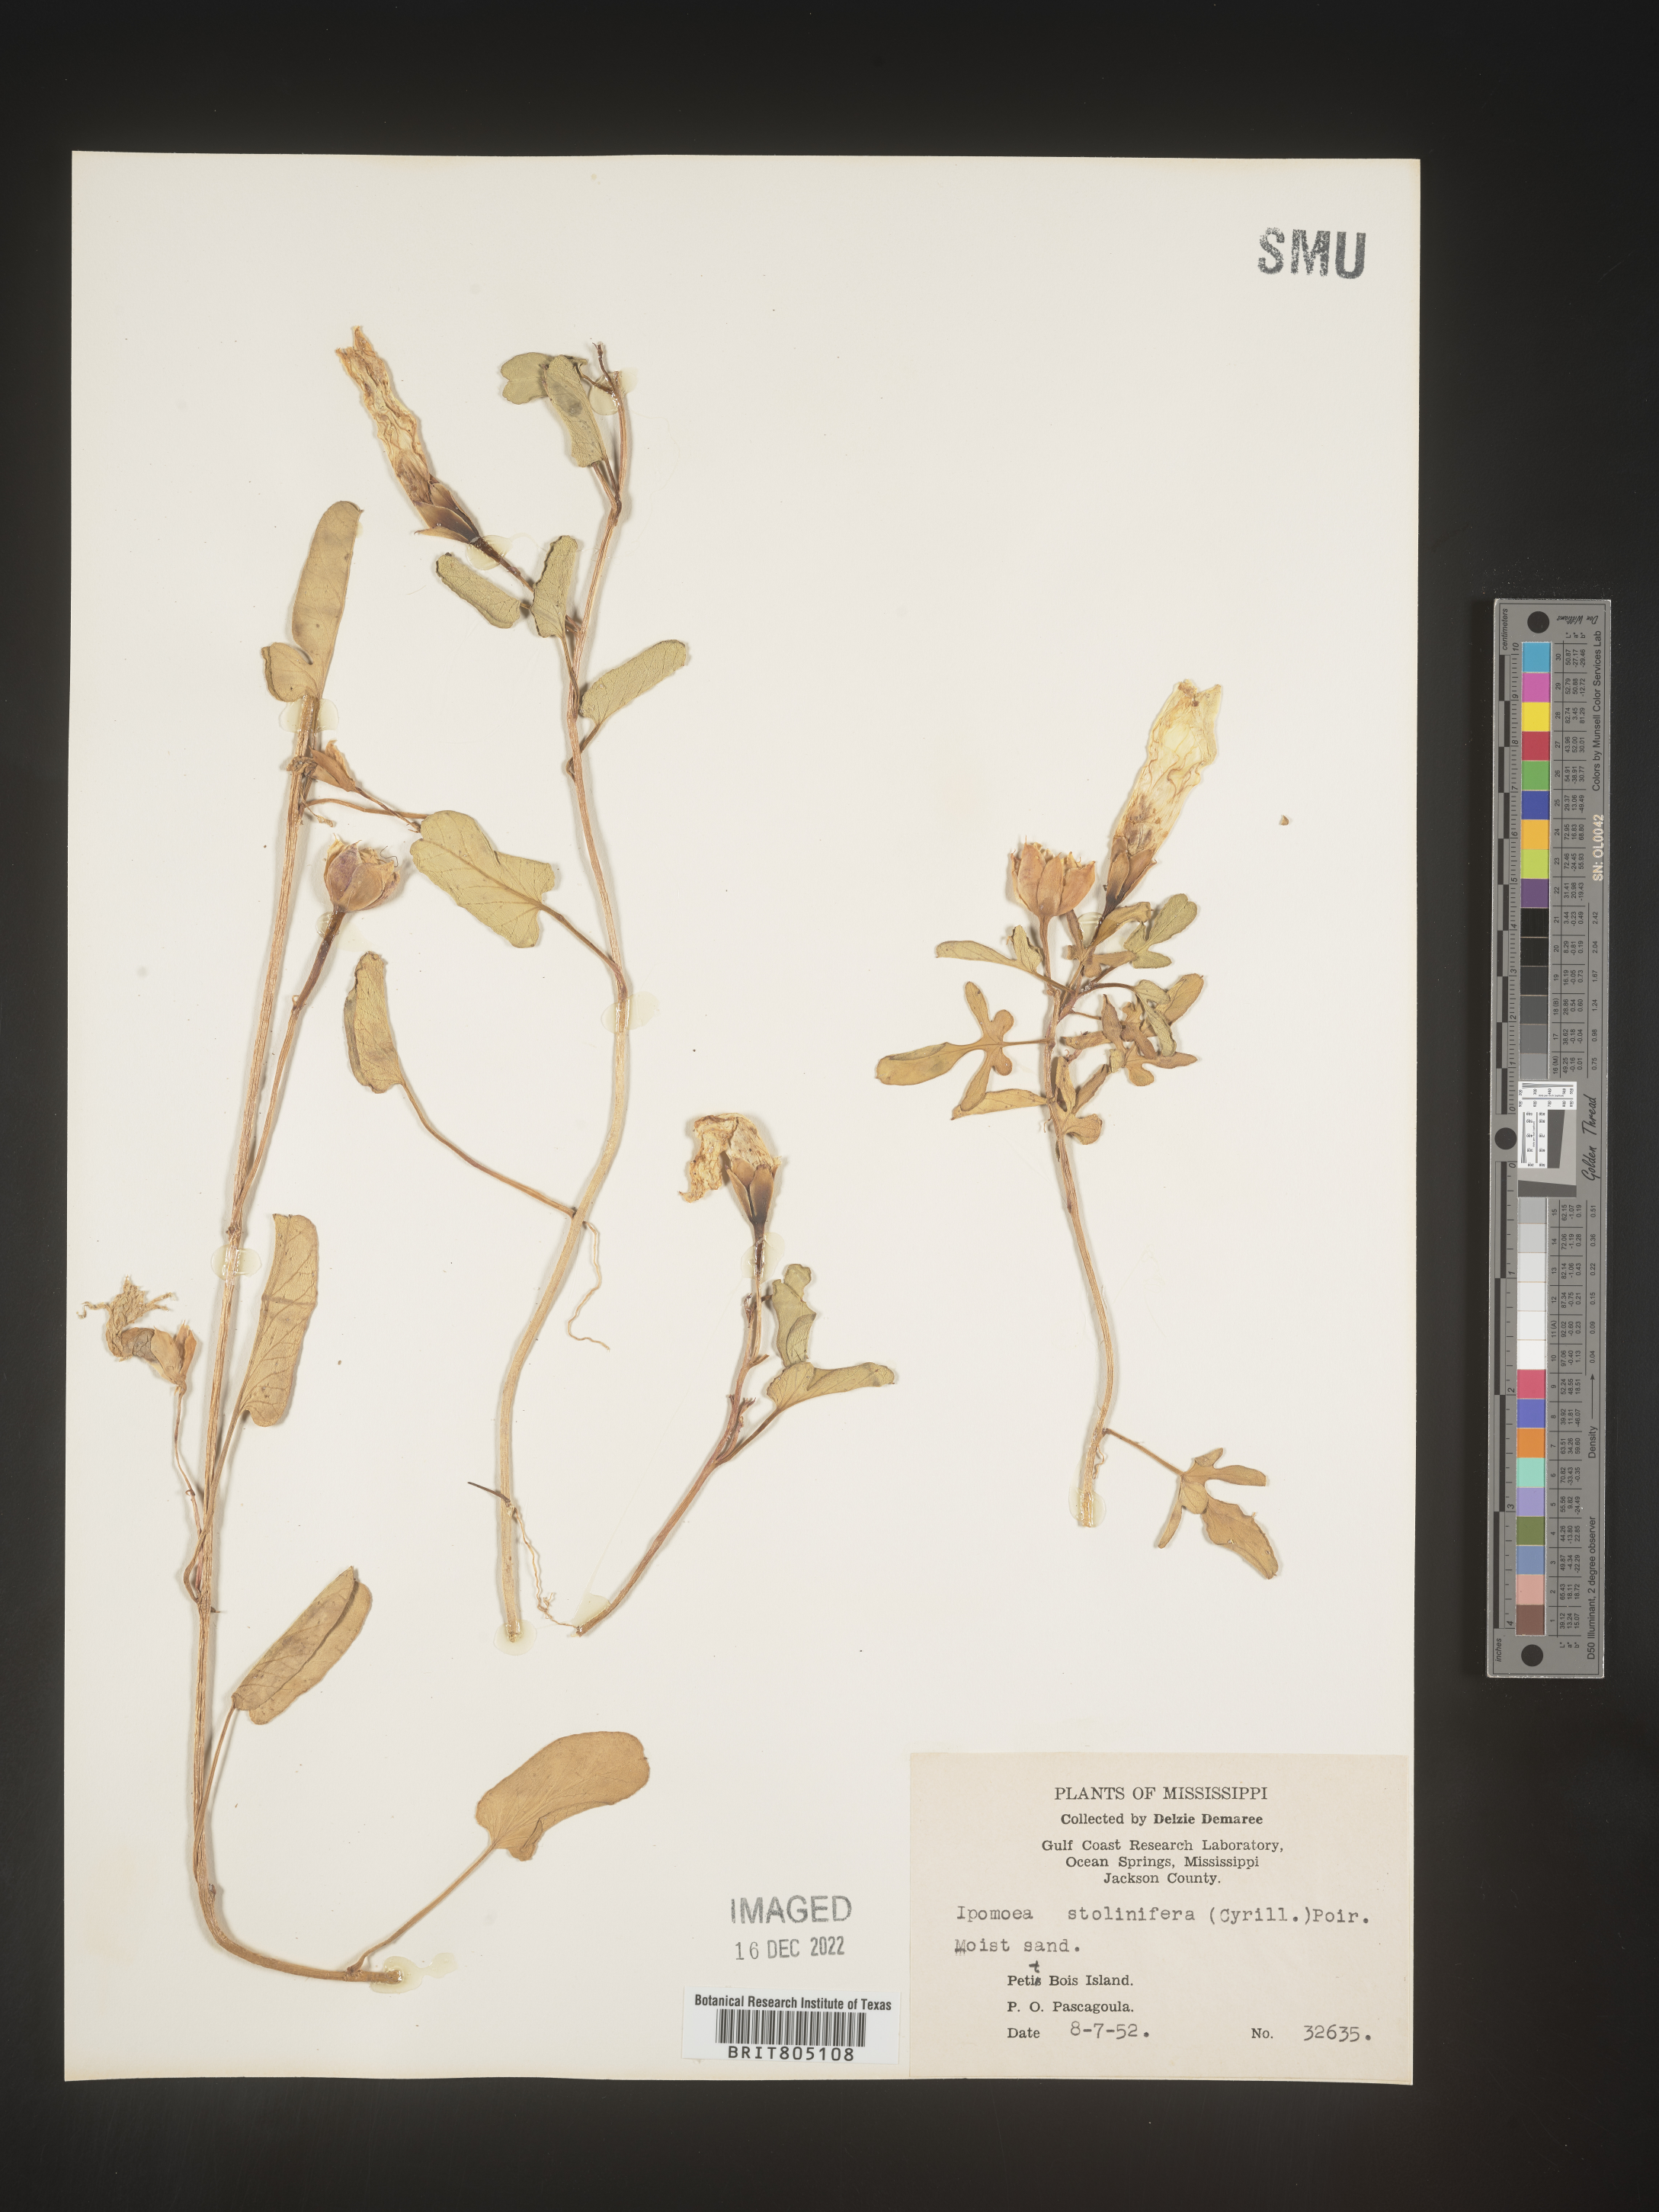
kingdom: Plantae
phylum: Tracheophyta
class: Magnoliopsida
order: Solanales
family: Convolvulaceae
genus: Ipomoea
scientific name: Ipomoea imperati
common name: Fiddle-leaf morning-glory
